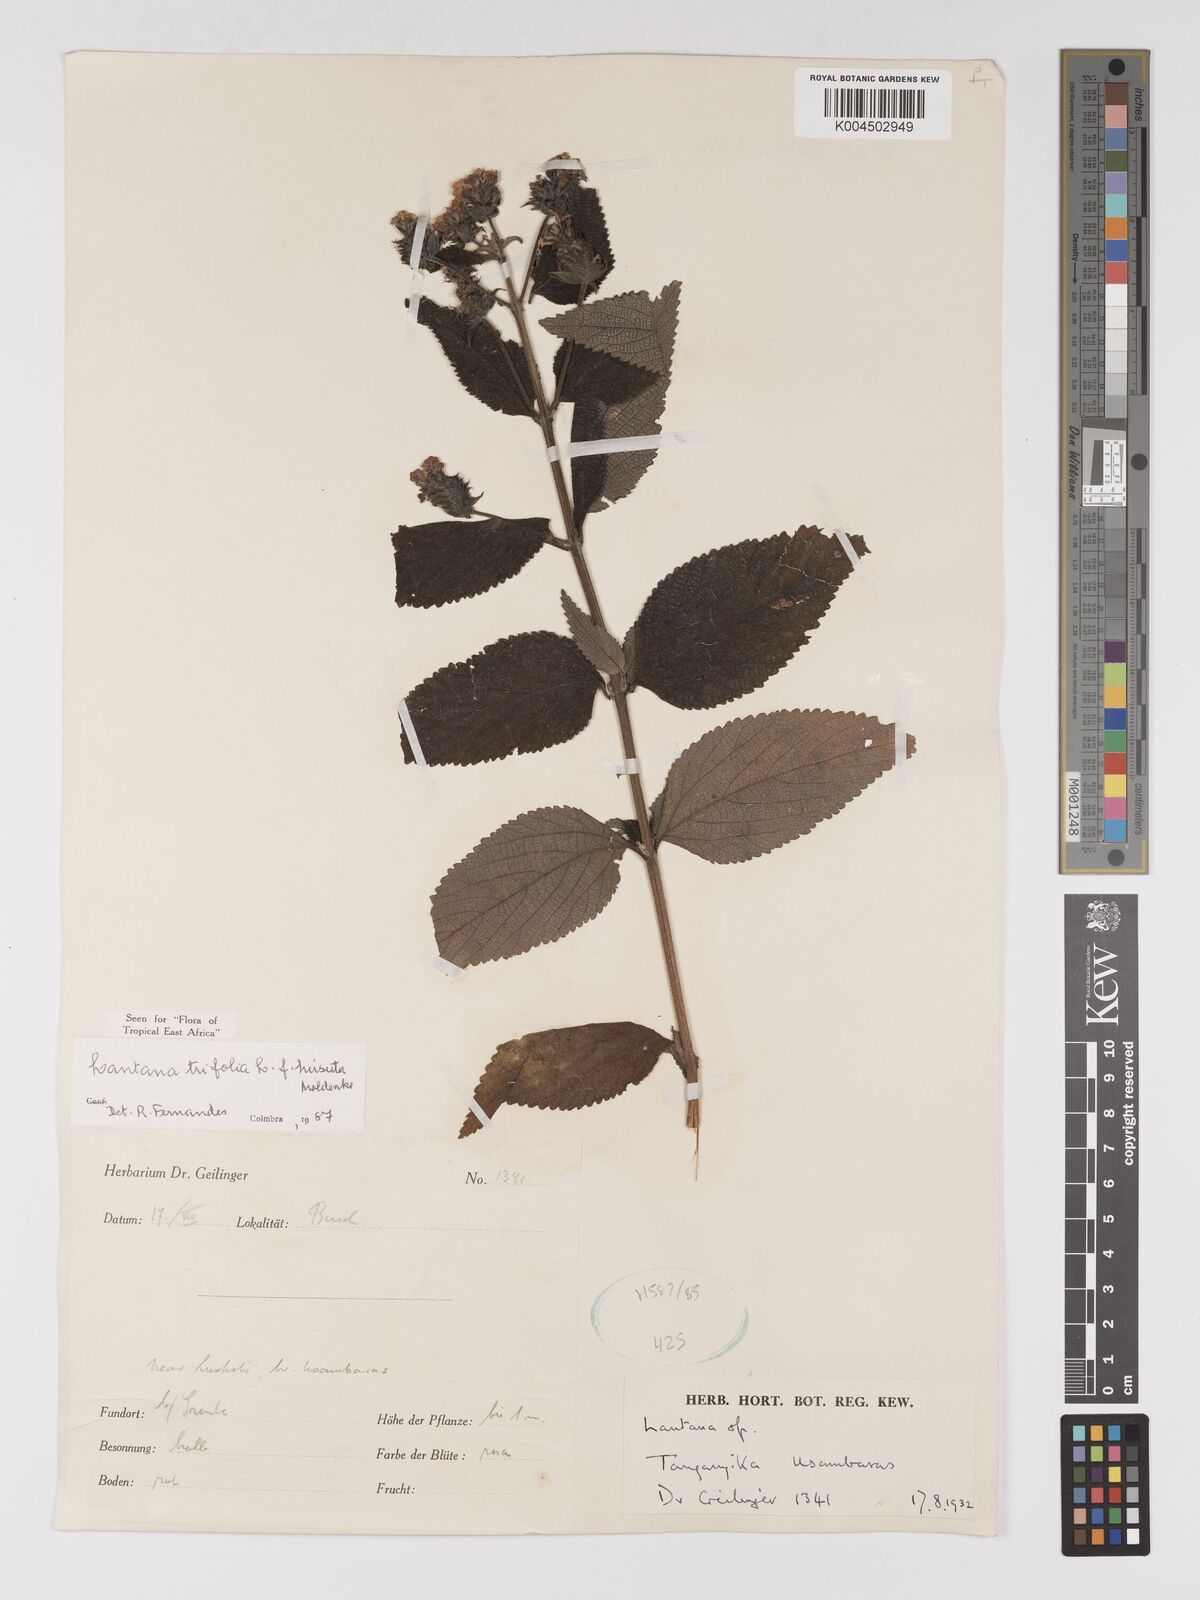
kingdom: Plantae
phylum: Tracheophyta
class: Magnoliopsida
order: Lamiales
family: Verbenaceae
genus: Lantana
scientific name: Lantana trifolia
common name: Sweet-sage
